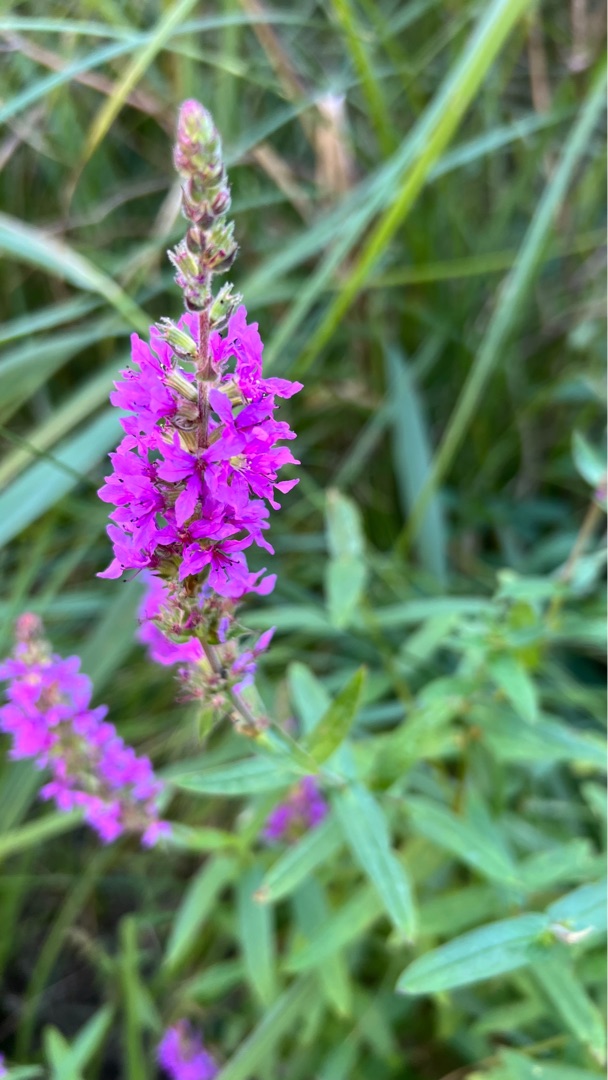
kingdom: Plantae
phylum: Tracheophyta
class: Magnoliopsida
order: Myrtales
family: Lythraceae
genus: Lythrum
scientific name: Lythrum salicaria
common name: Kattehale
